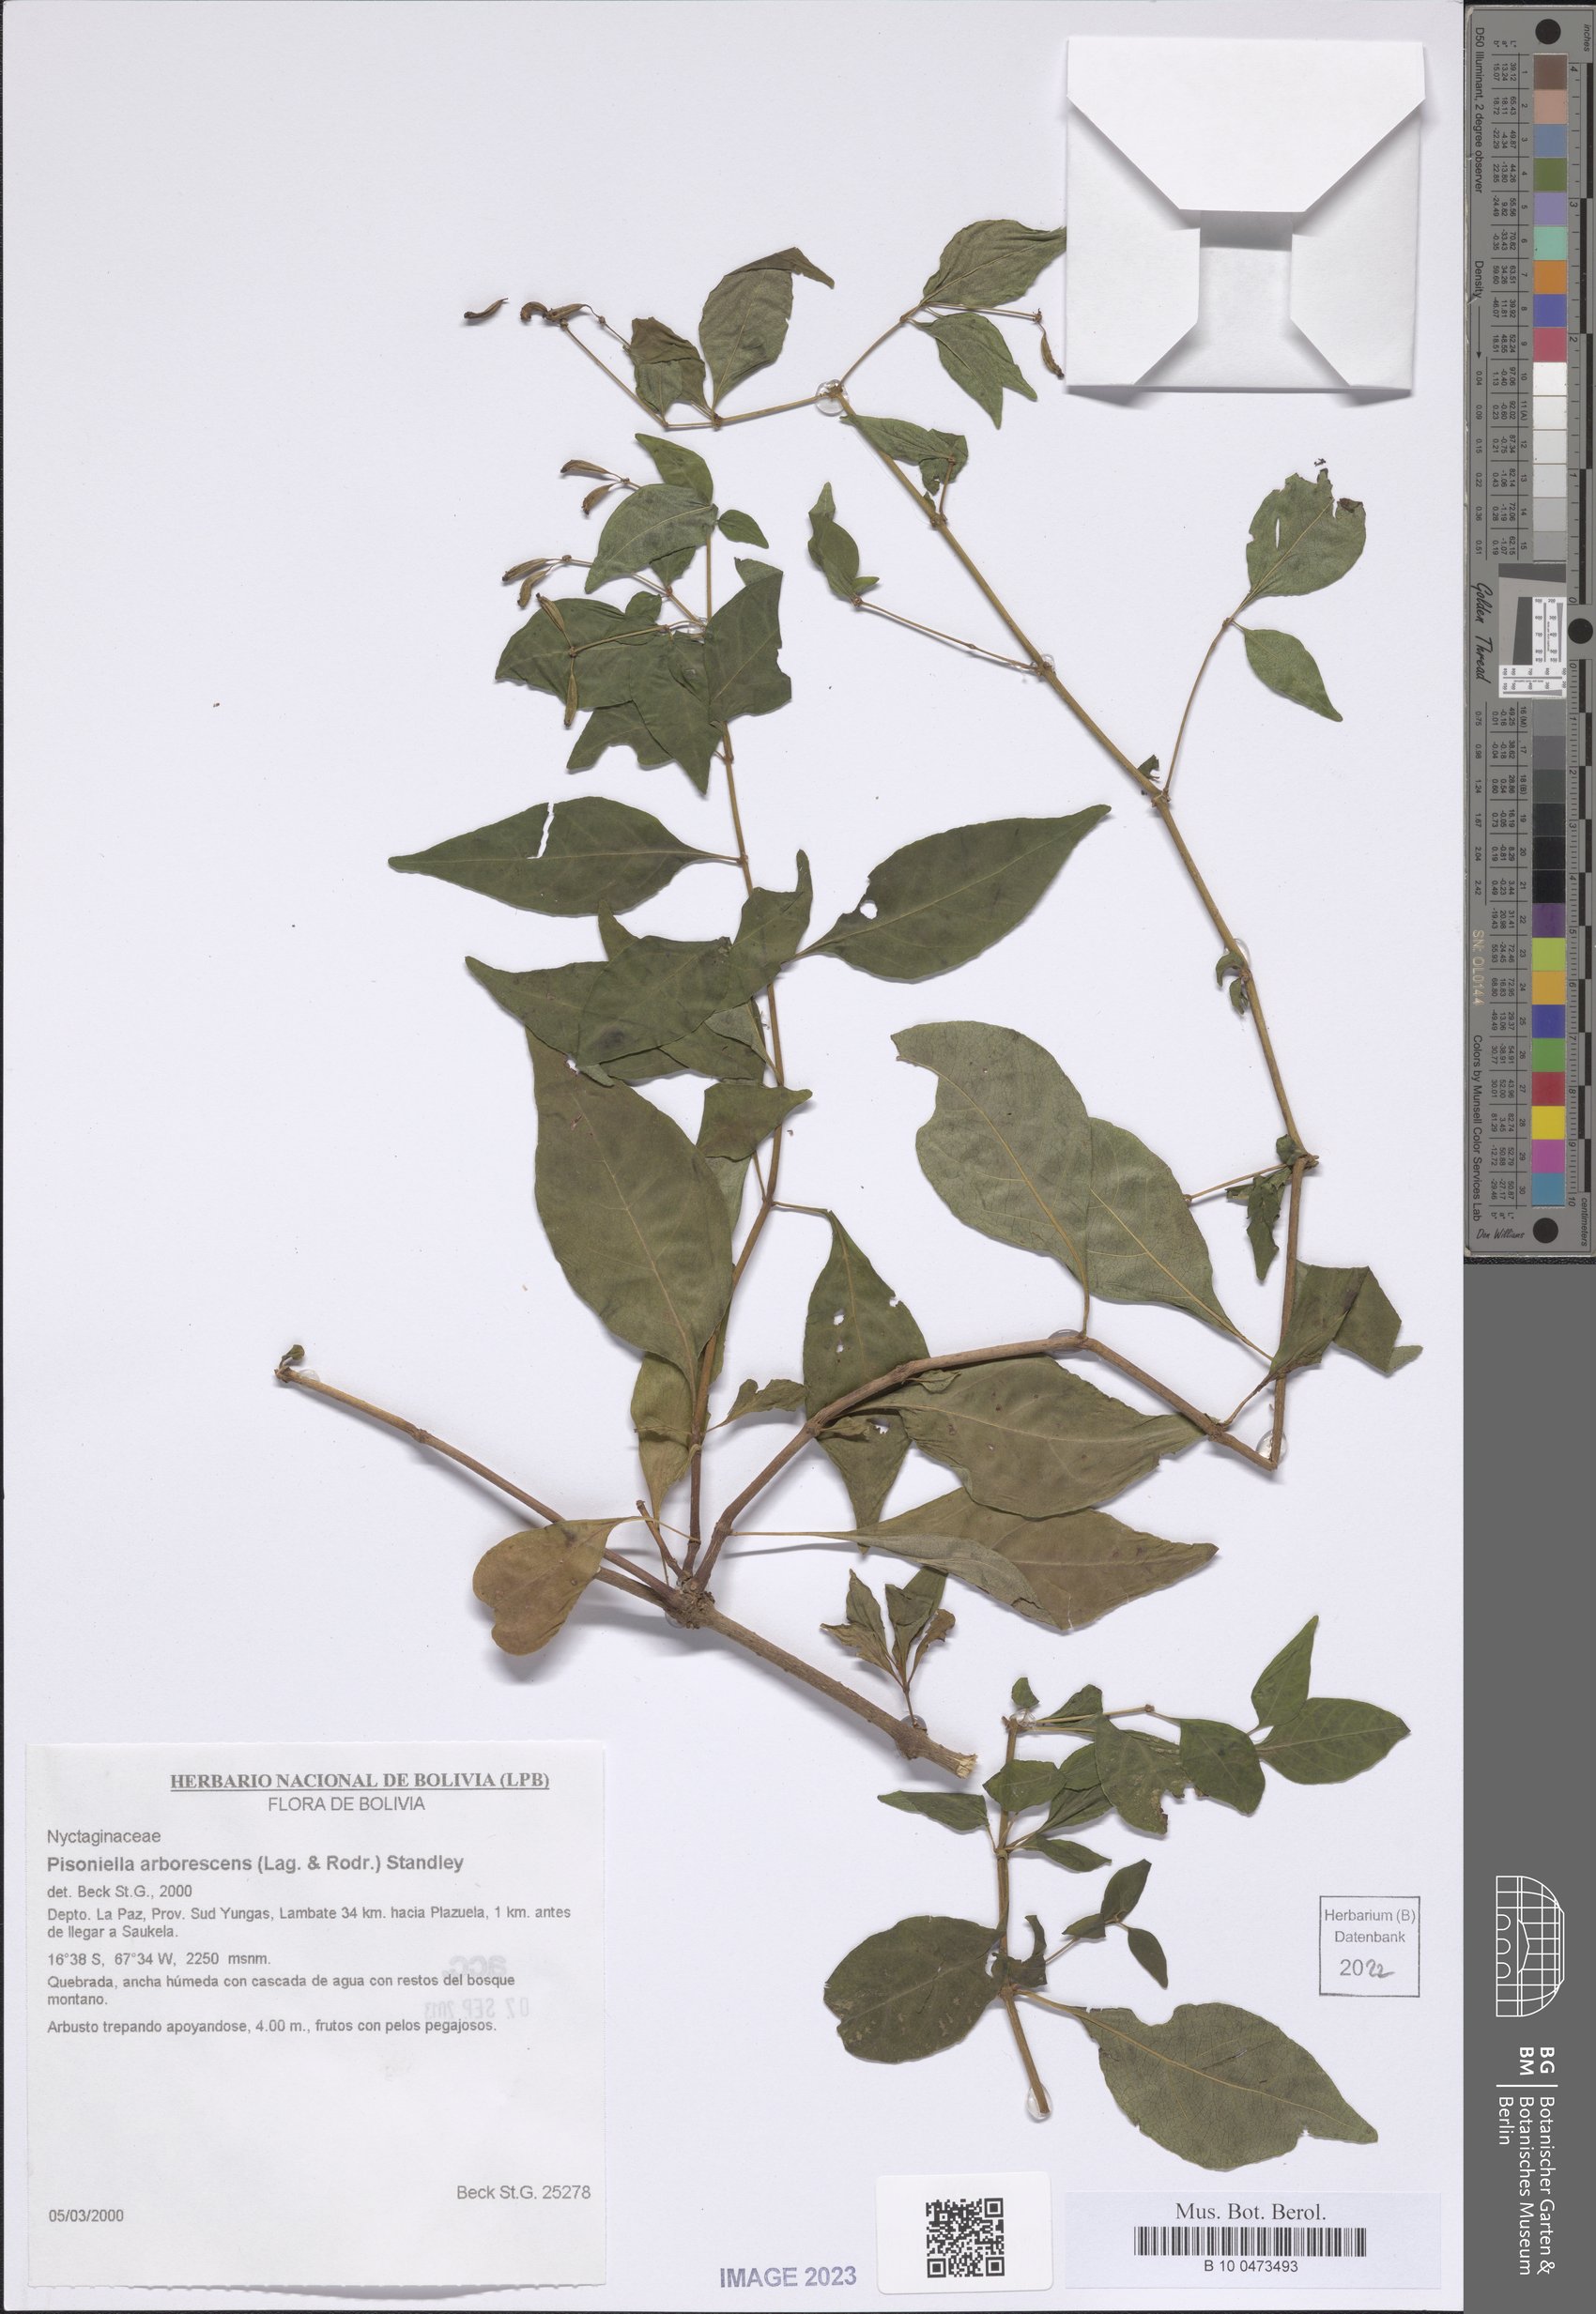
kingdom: Plantae
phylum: Tracheophyta
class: Magnoliopsida
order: Caryophyllales
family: Nyctaginaceae
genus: Pisoniella
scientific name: Pisoniella arborescens
